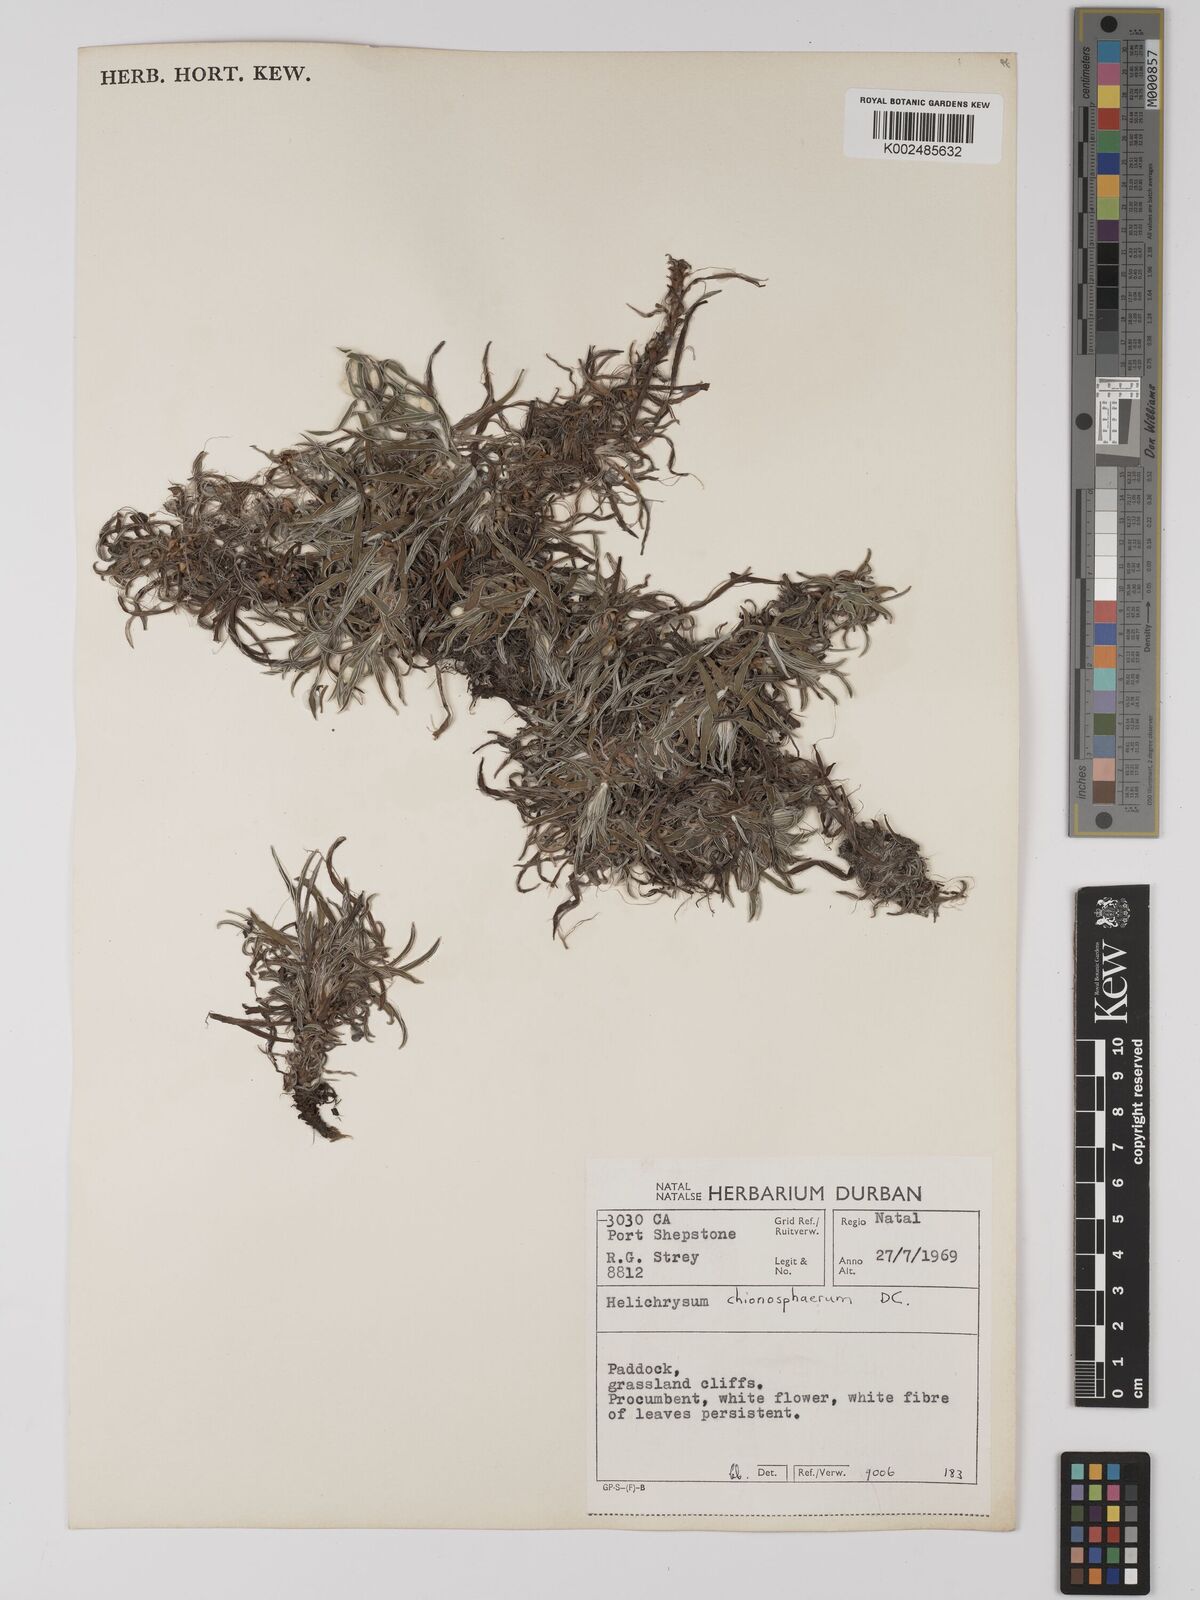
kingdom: Plantae
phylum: Tracheophyta
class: Magnoliopsida
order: Asterales
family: Asteraceae
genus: Helichrysum
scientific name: Helichrysum chionosphaerum
